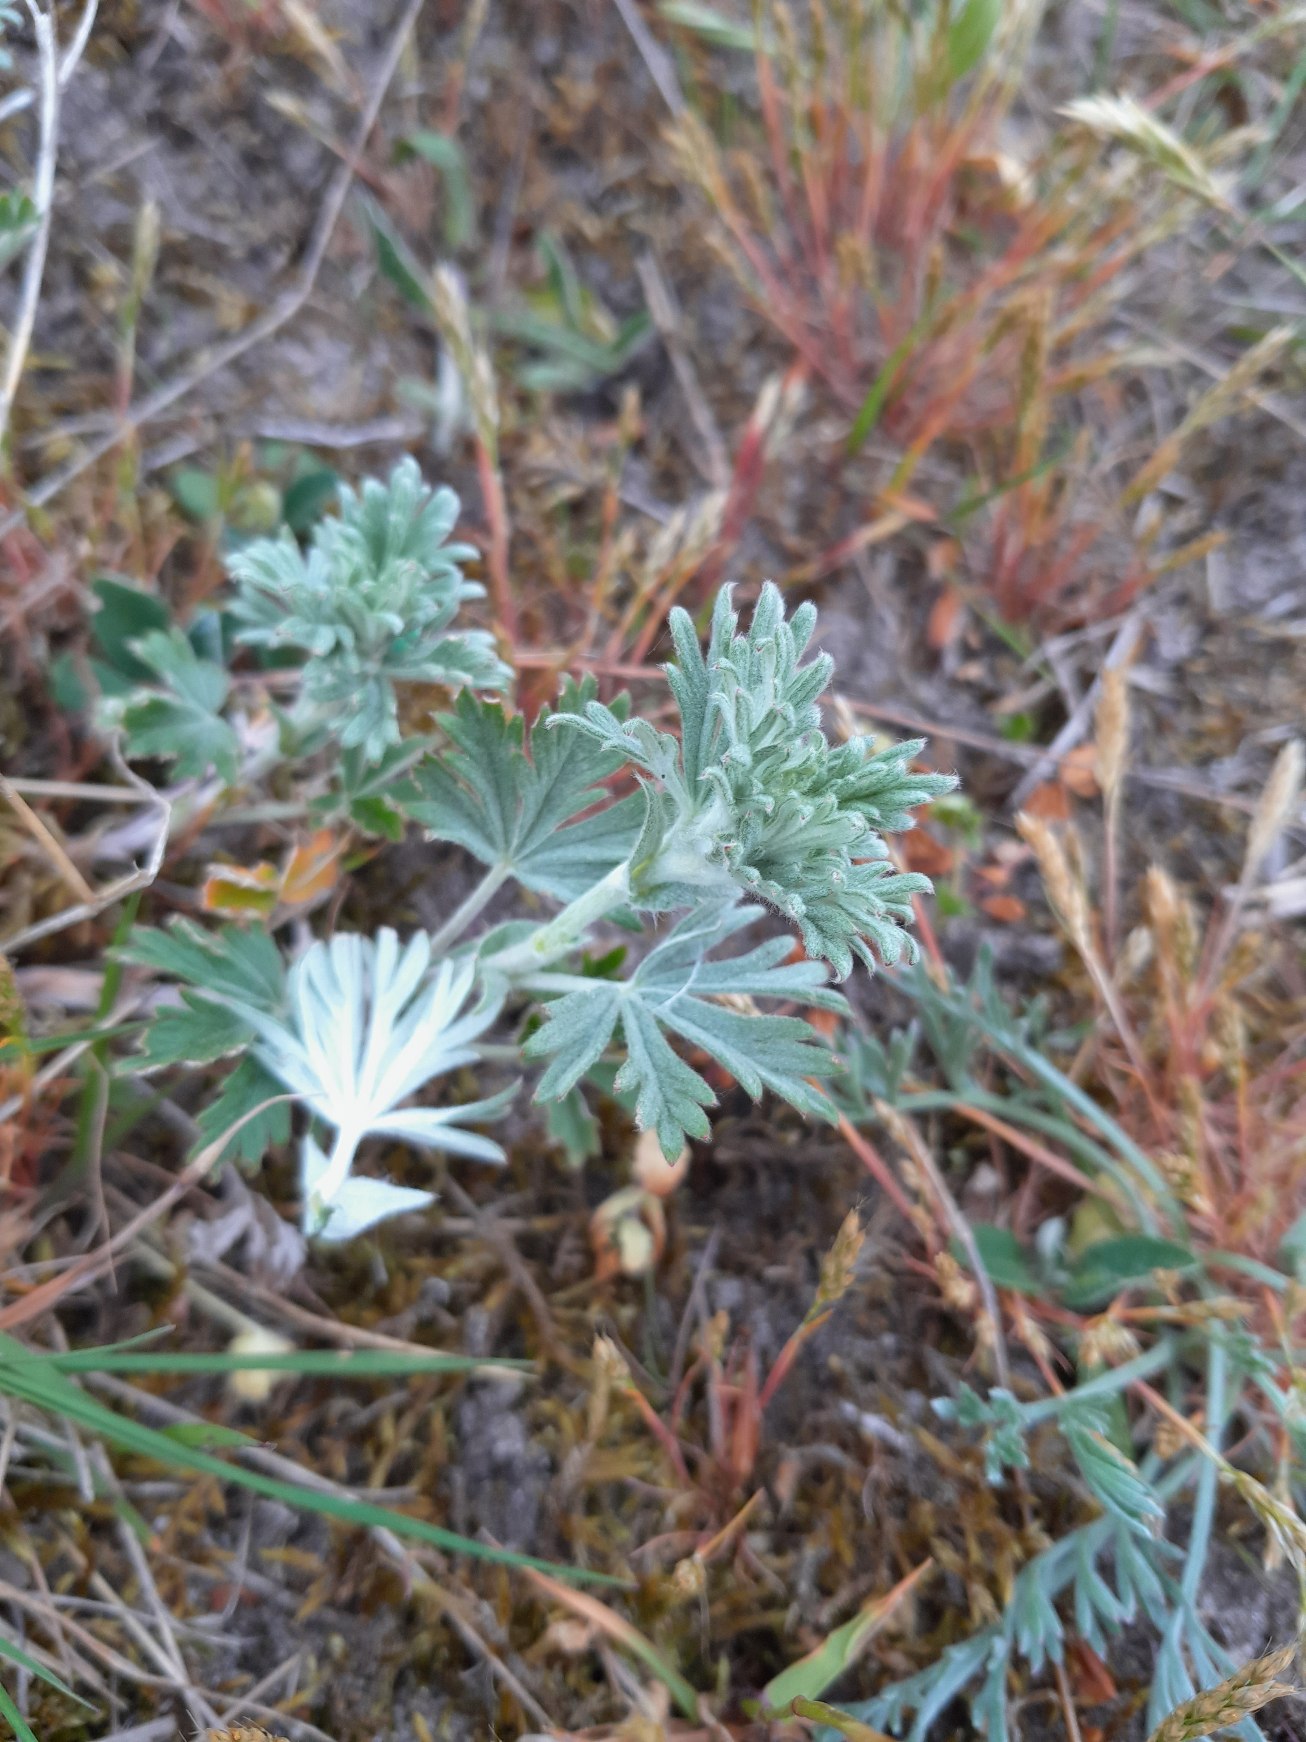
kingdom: Plantae
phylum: Tracheophyta
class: Magnoliopsida
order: Rosales
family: Rosaceae
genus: Potentilla
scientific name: Potentilla argentea
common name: Sølv-potentil
